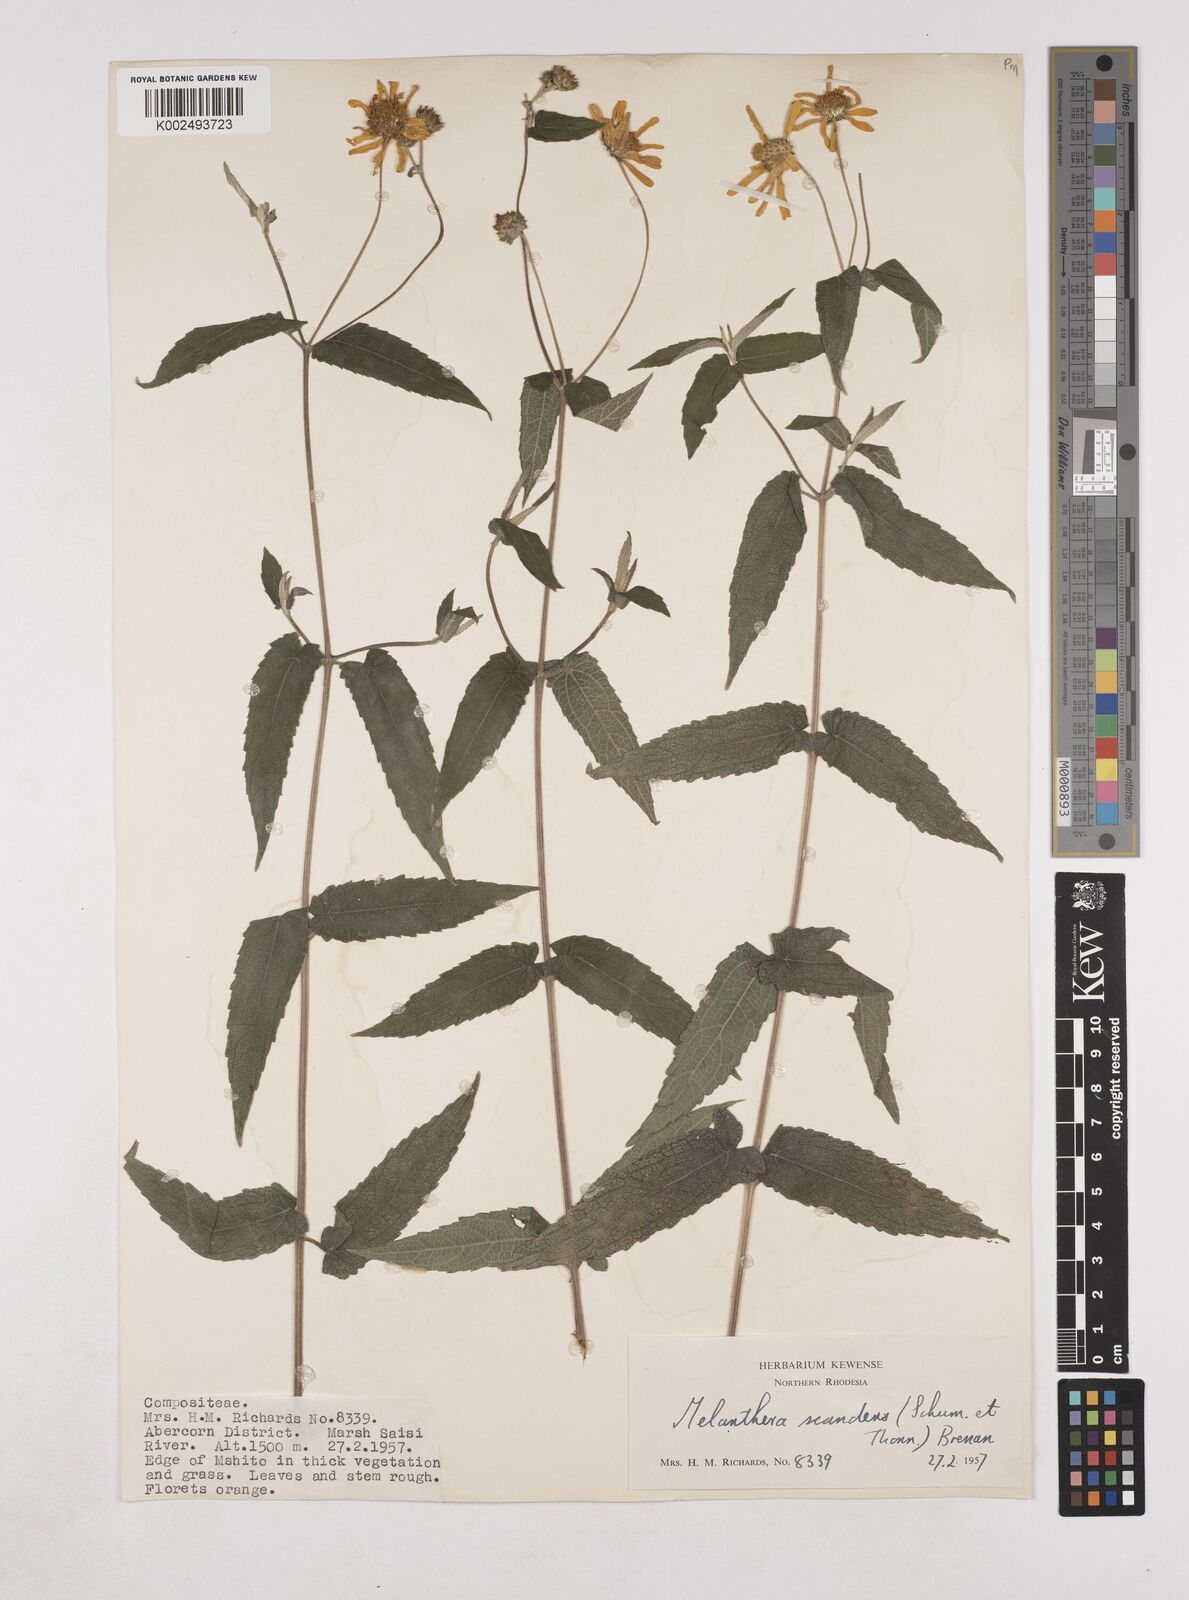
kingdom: Plantae
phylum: Tracheophyta
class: Magnoliopsida
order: Asterales
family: Asteraceae
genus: Lipotriche
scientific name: Lipotriche scandens
